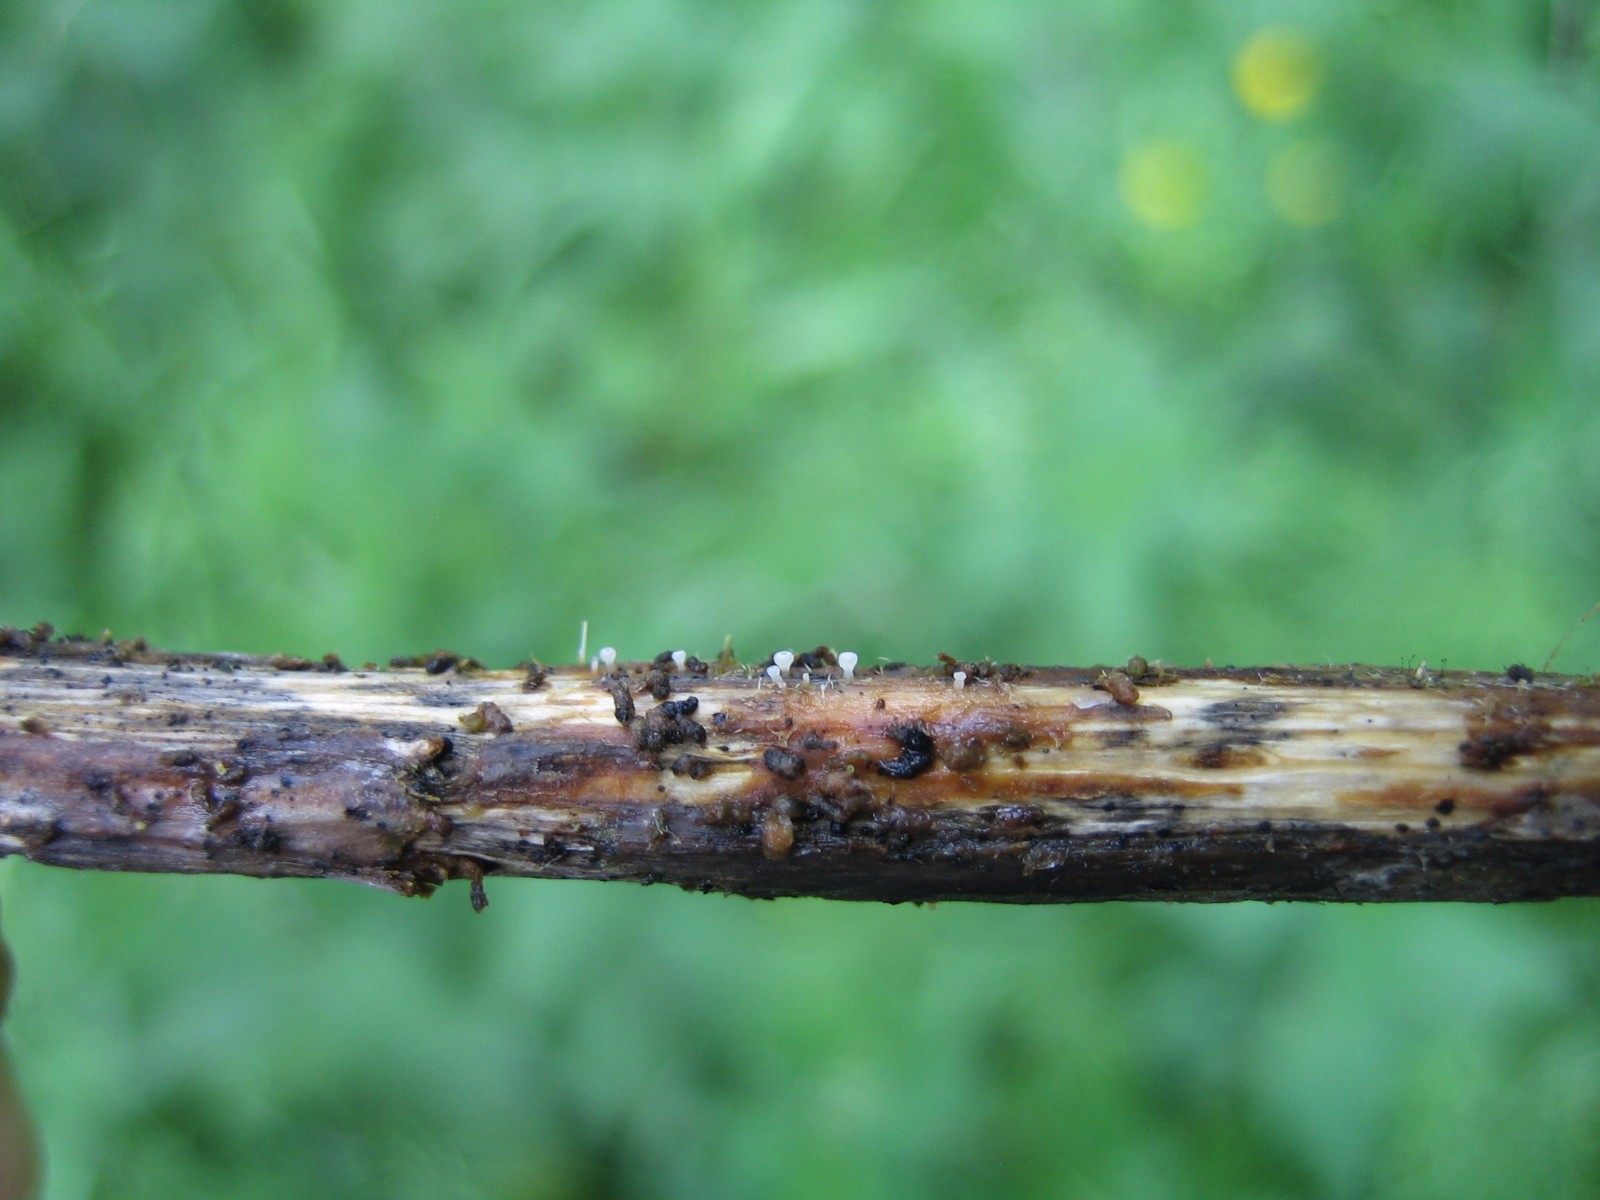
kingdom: Fungi
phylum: Ascomycota
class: Leotiomycetes
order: Helotiales
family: Helotiaceae
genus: Cyathicula
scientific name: Cyathicula cyathoidea
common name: pokal-stilkskive
